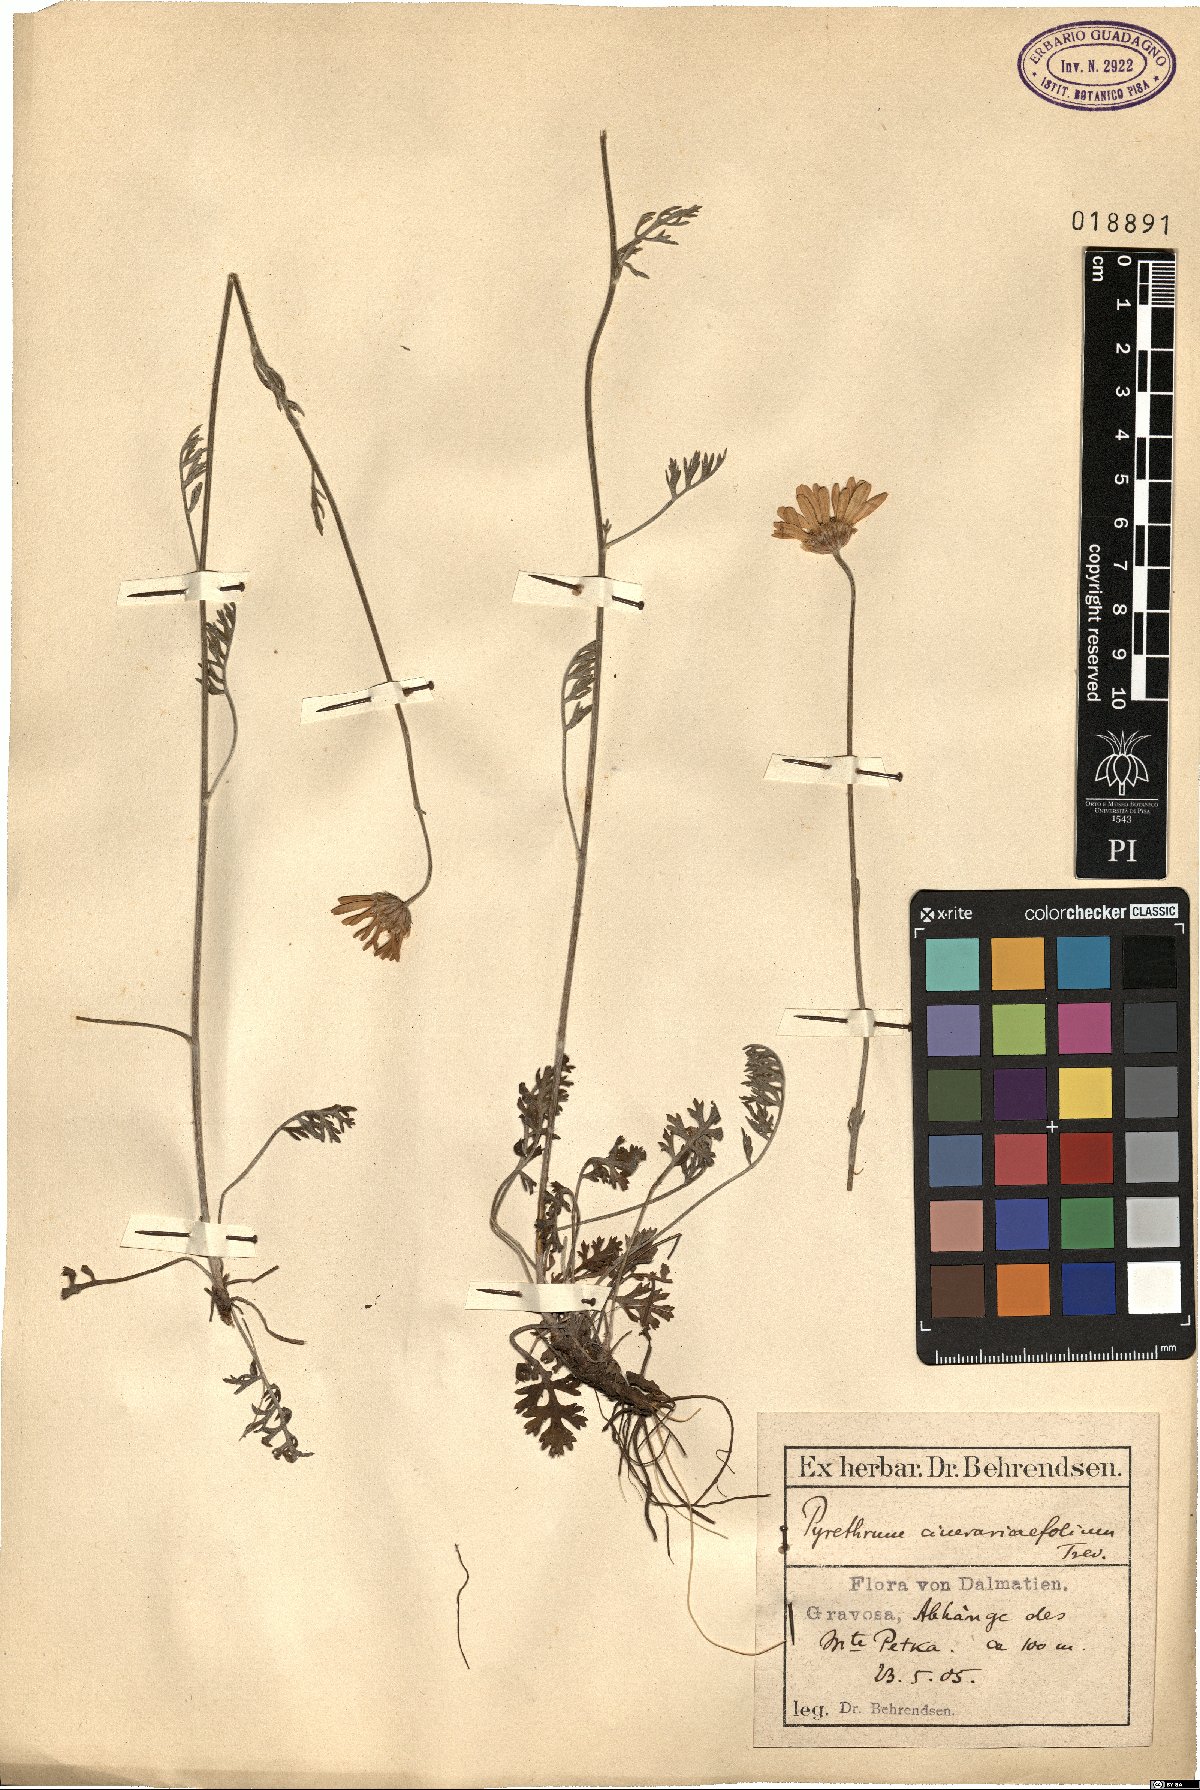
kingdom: Plantae
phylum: Tracheophyta
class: Magnoliopsida
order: Asterales
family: Asteraceae
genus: Tanacetum
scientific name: Tanacetum cinerariifolium
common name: Dalmatian pyrethrum
